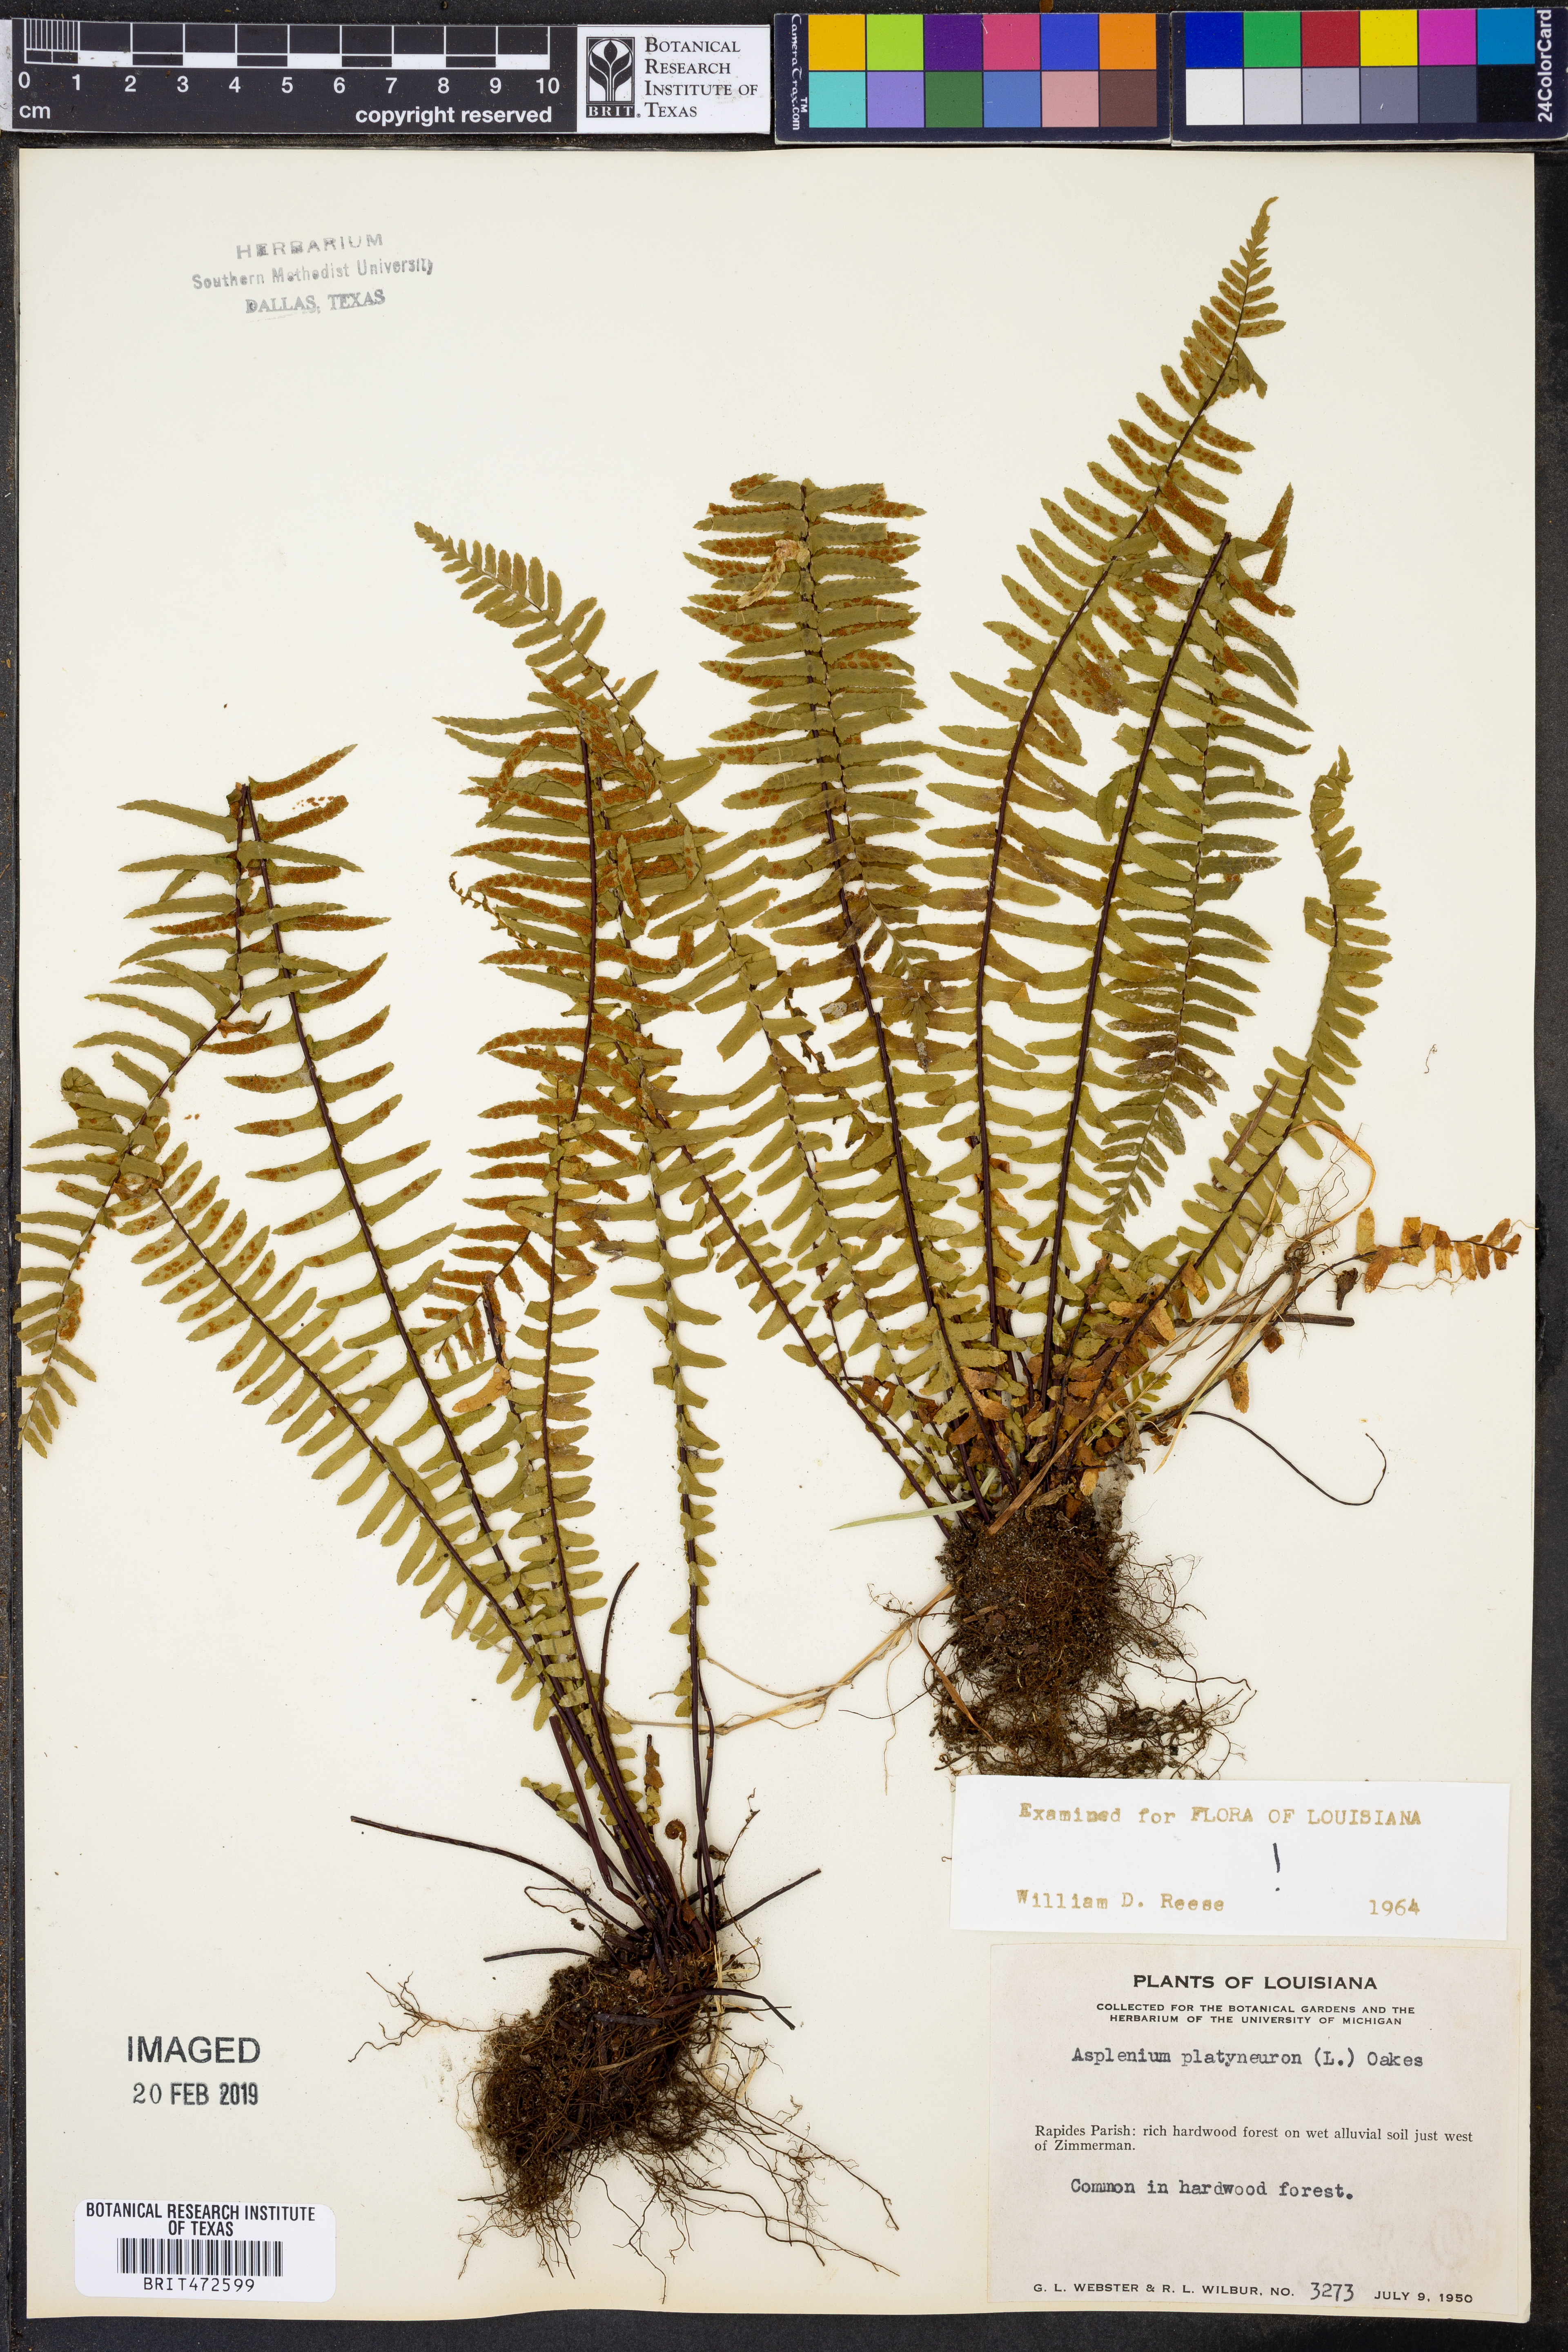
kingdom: Plantae
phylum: Tracheophyta
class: Polypodiopsida
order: Polypodiales
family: Aspleniaceae
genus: Asplenium
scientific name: Asplenium platyneuron
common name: Ebony spleenwort
